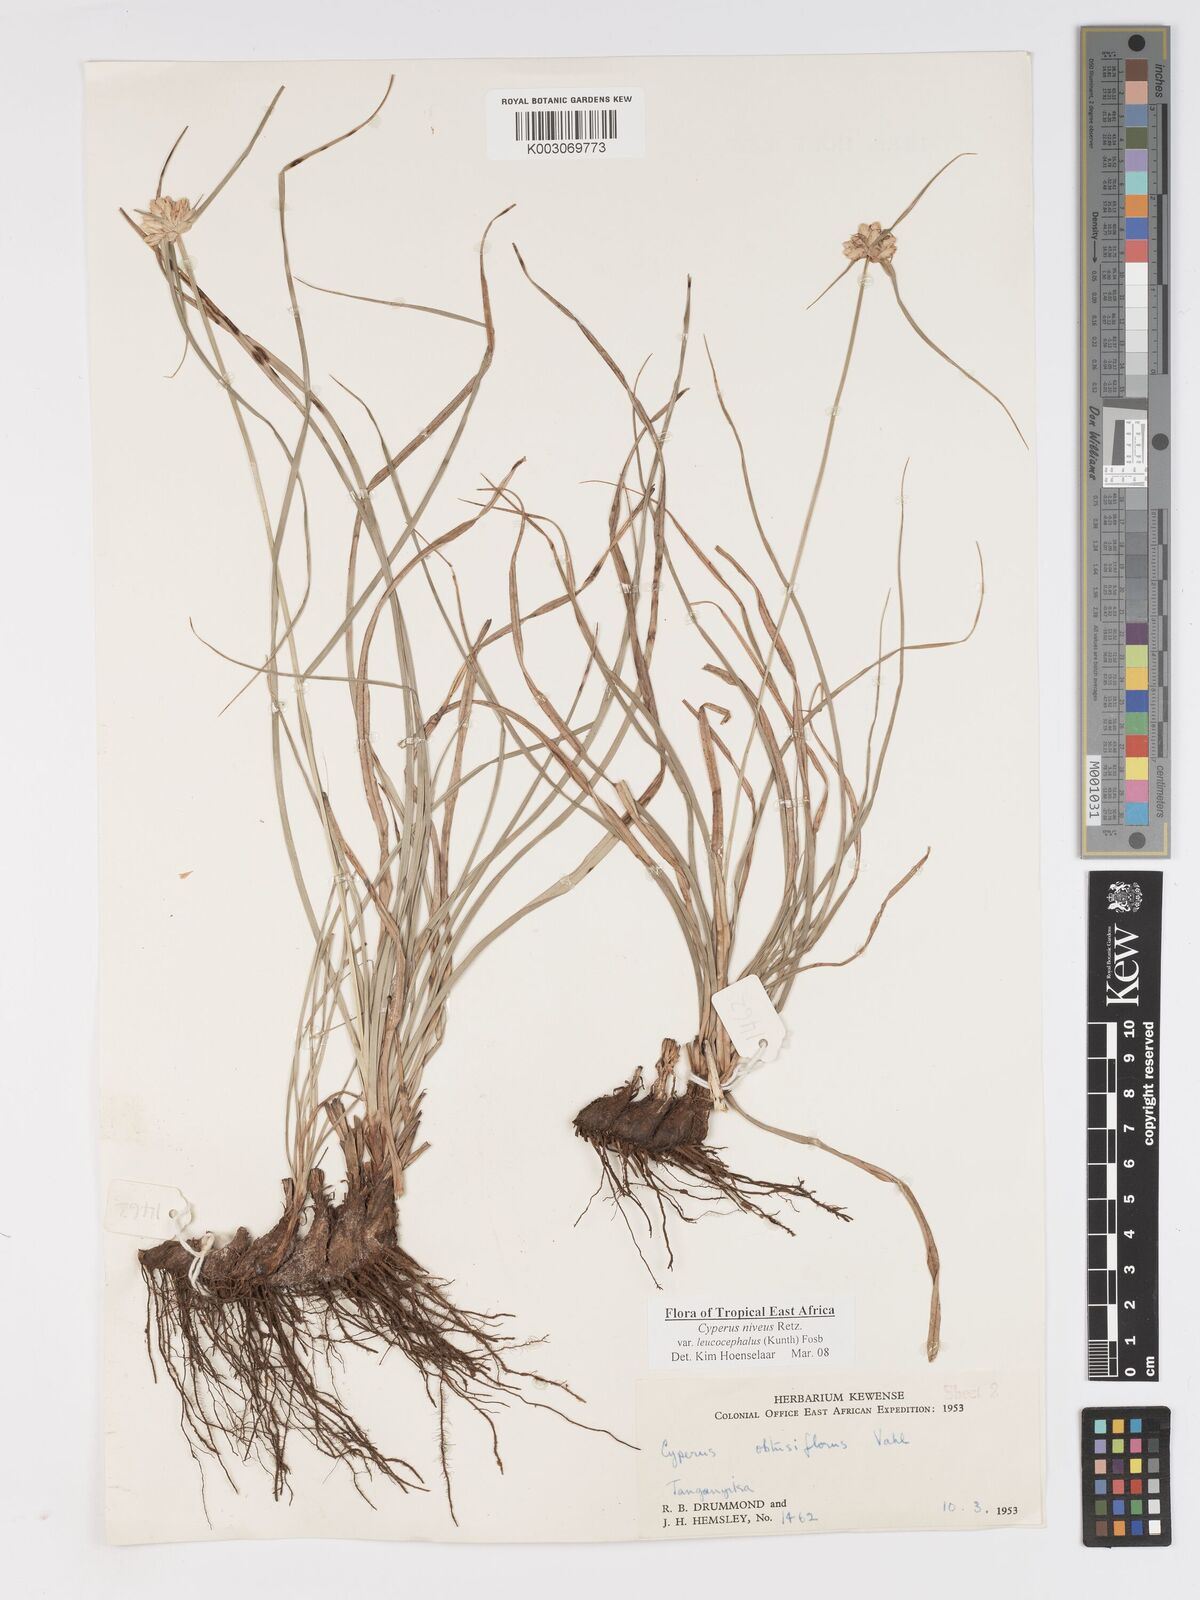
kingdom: Plantae
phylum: Tracheophyta
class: Liliopsida
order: Poales
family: Cyperaceae
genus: Cyperus
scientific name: Cyperus niveus
